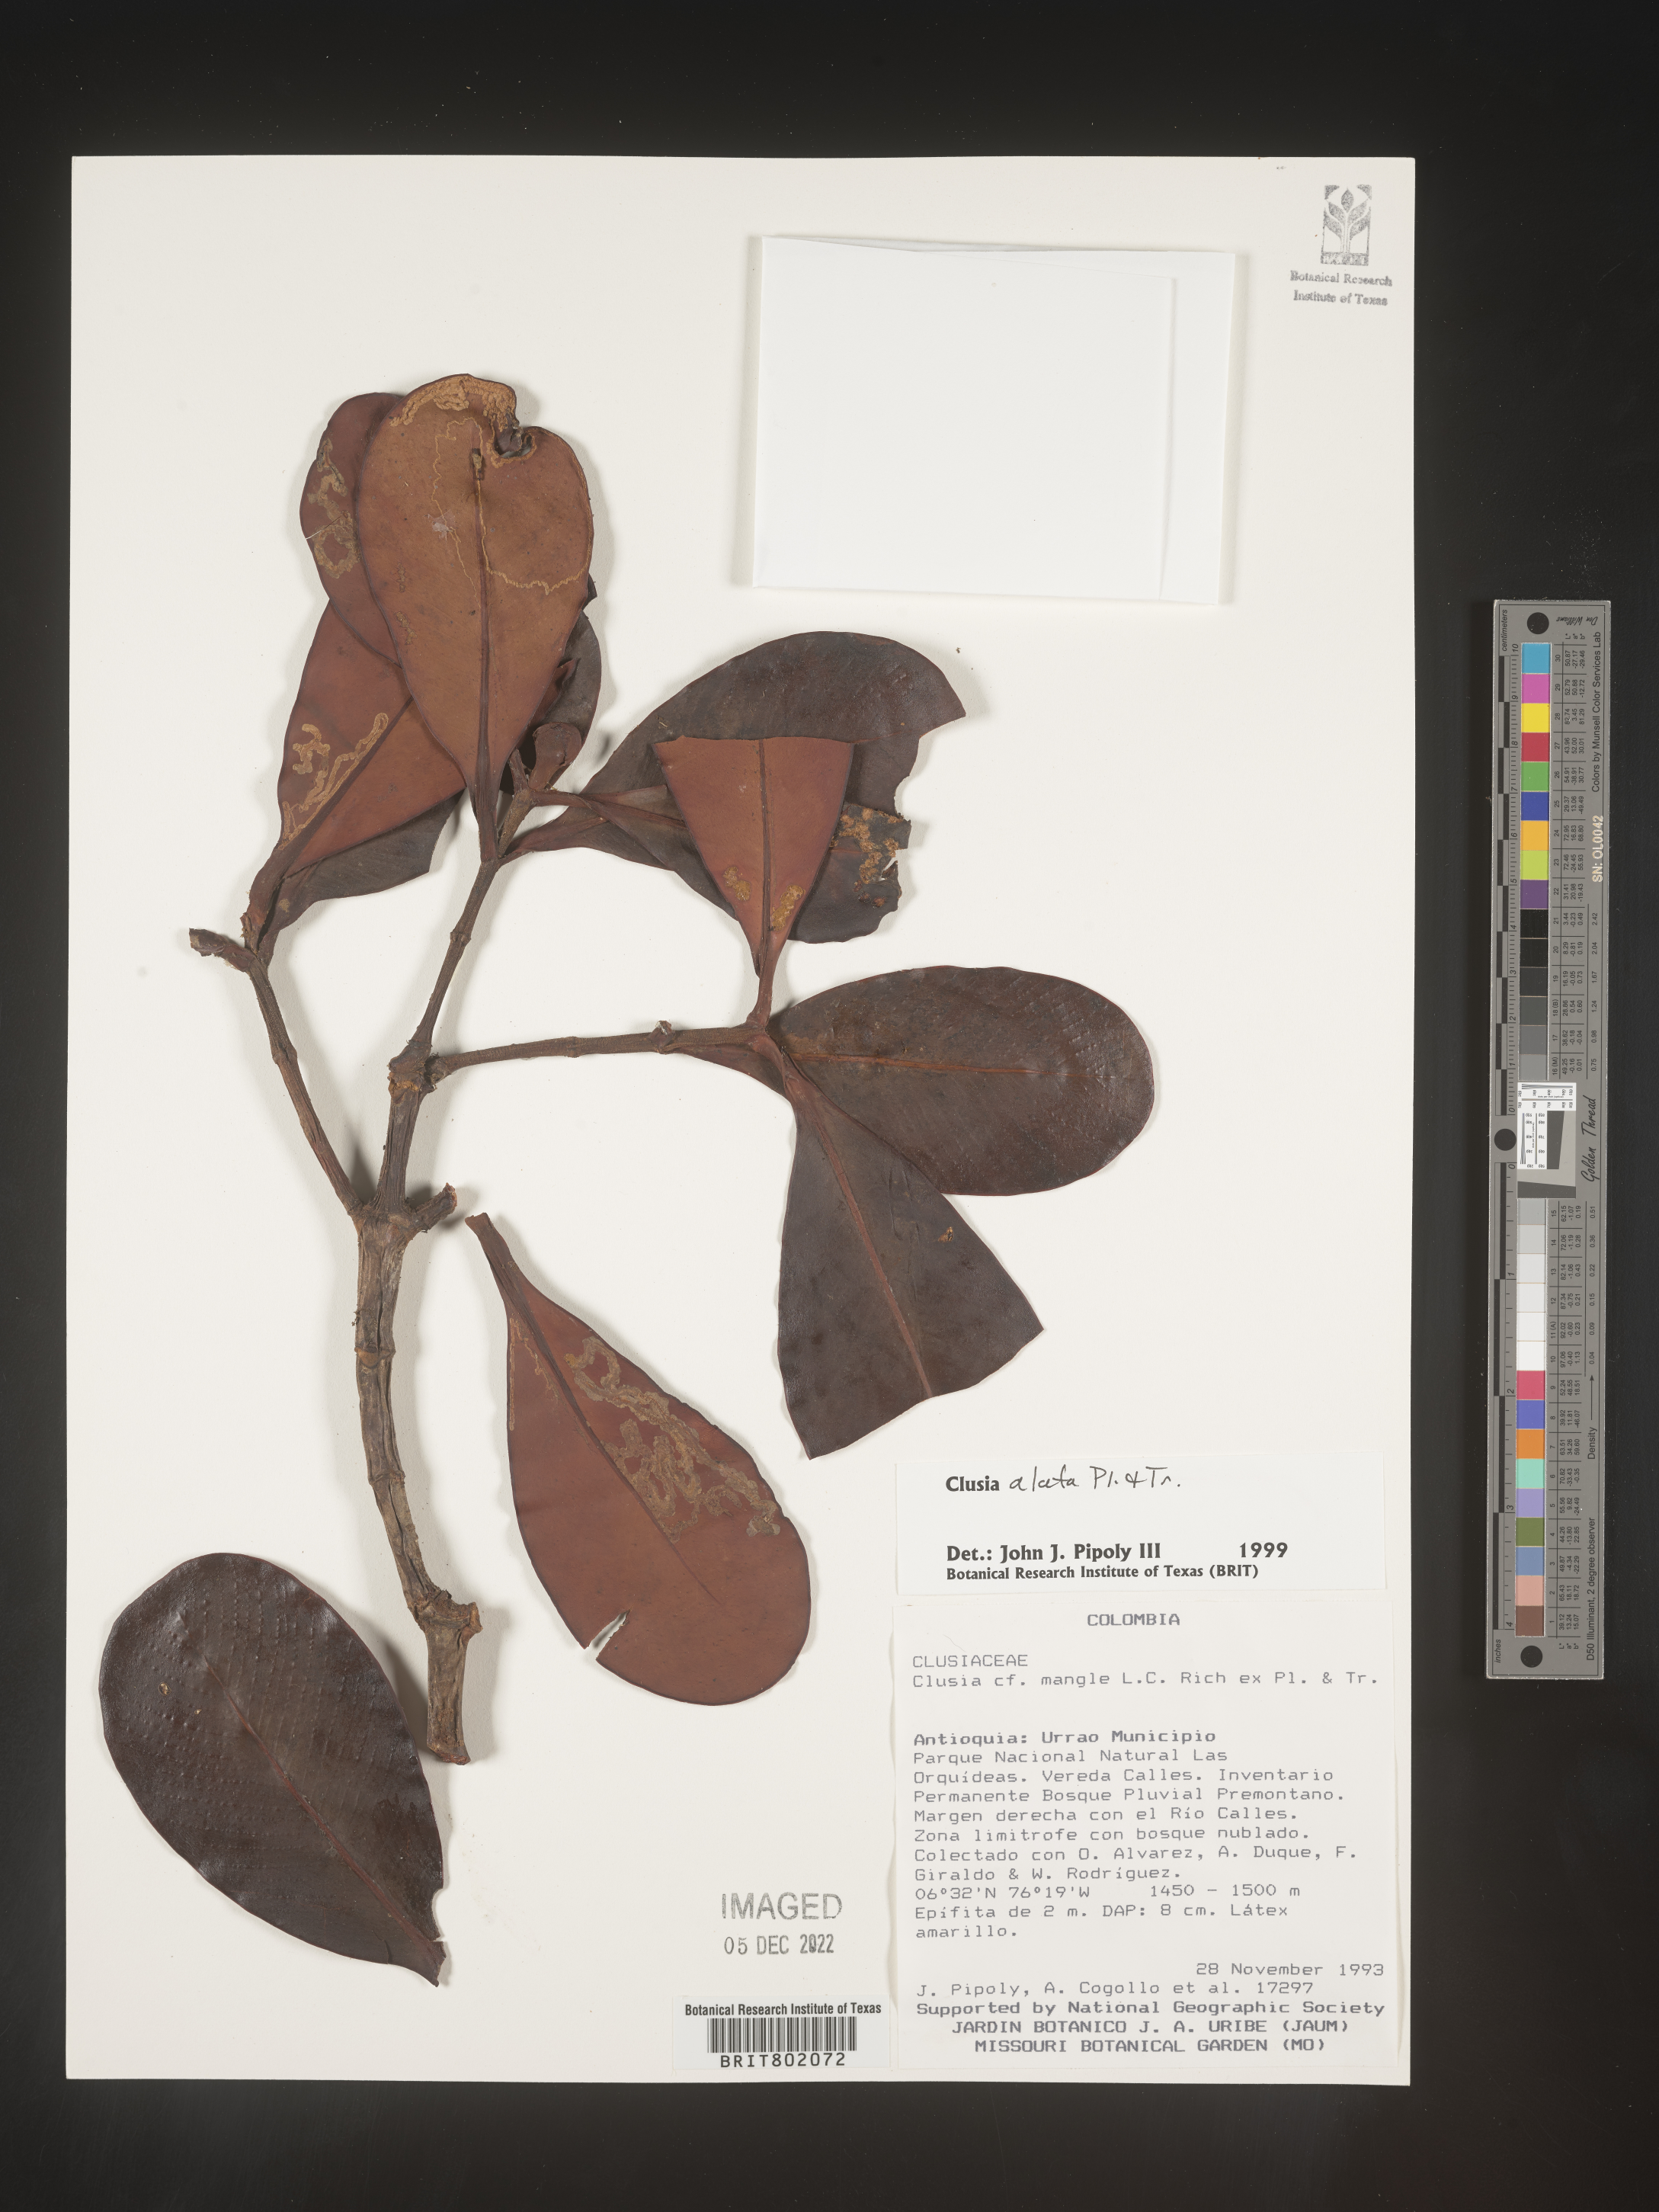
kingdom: Plantae
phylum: Tracheophyta
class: Magnoliopsida
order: Malpighiales
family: Clusiaceae
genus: Clusia
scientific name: Clusia alata
